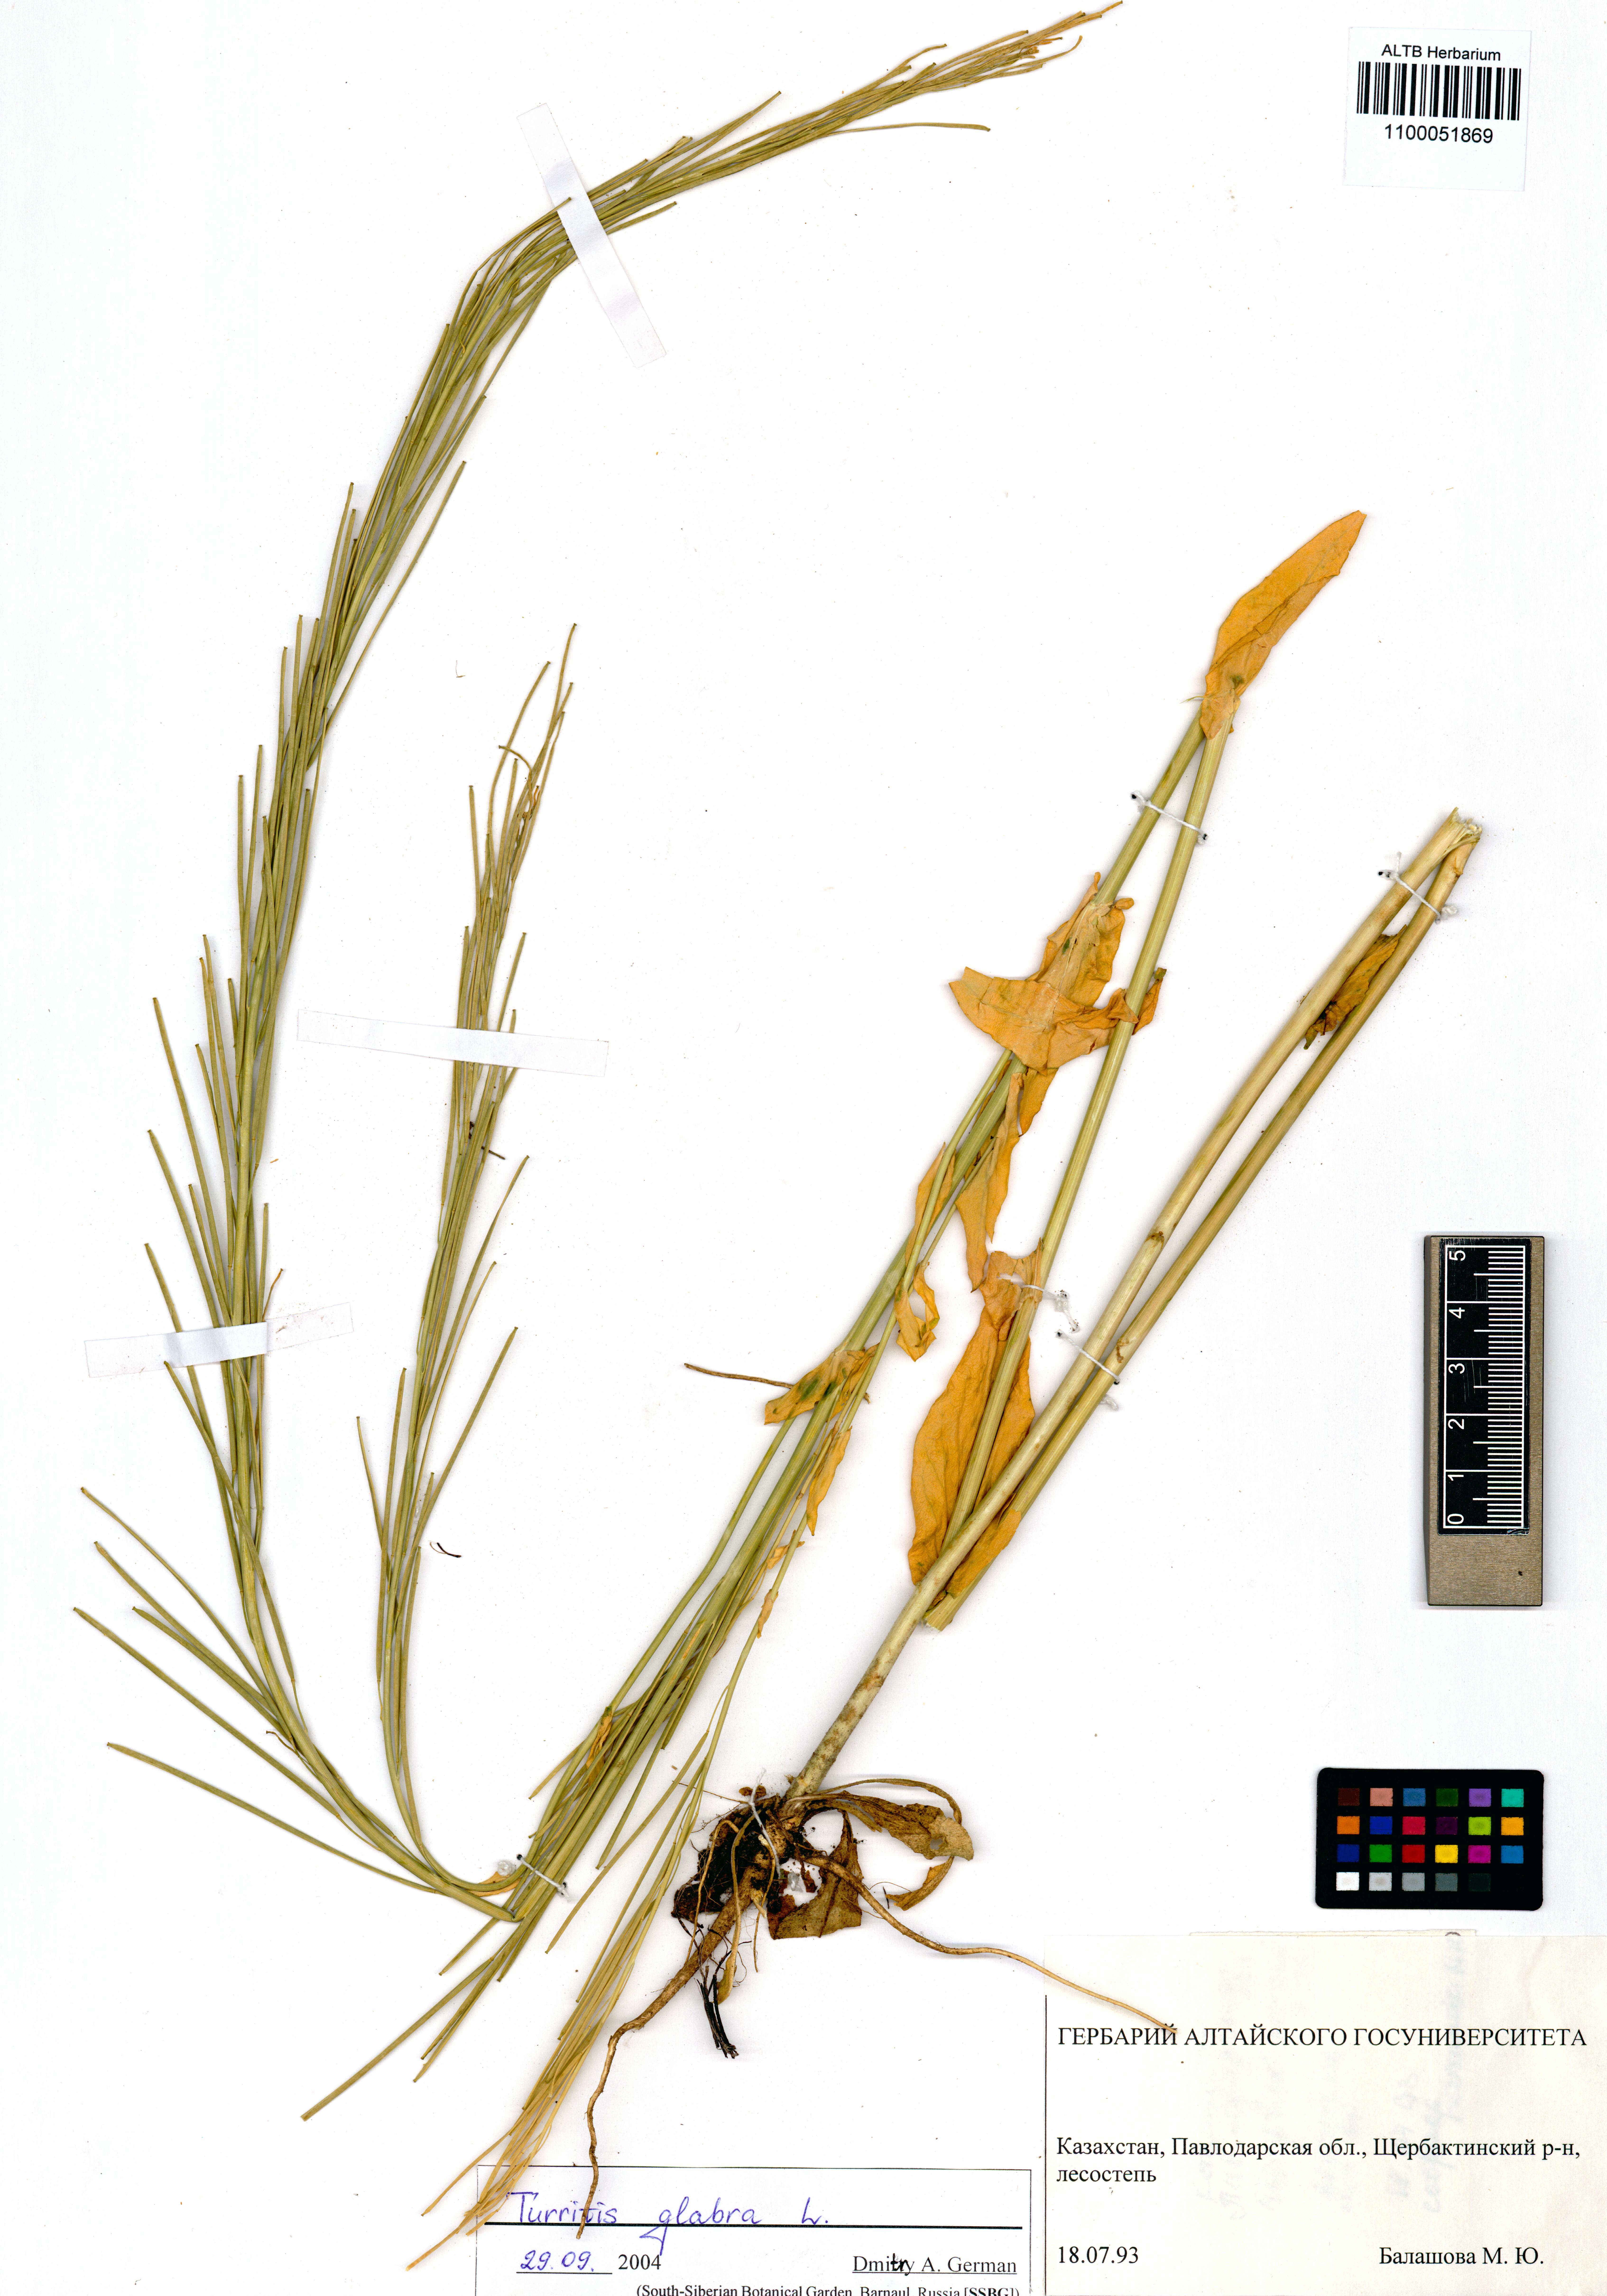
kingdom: Plantae
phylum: Tracheophyta
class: Magnoliopsida
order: Brassicales
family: Brassicaceae
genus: Turritis
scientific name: Turritis glabra
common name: Tower rockcress
